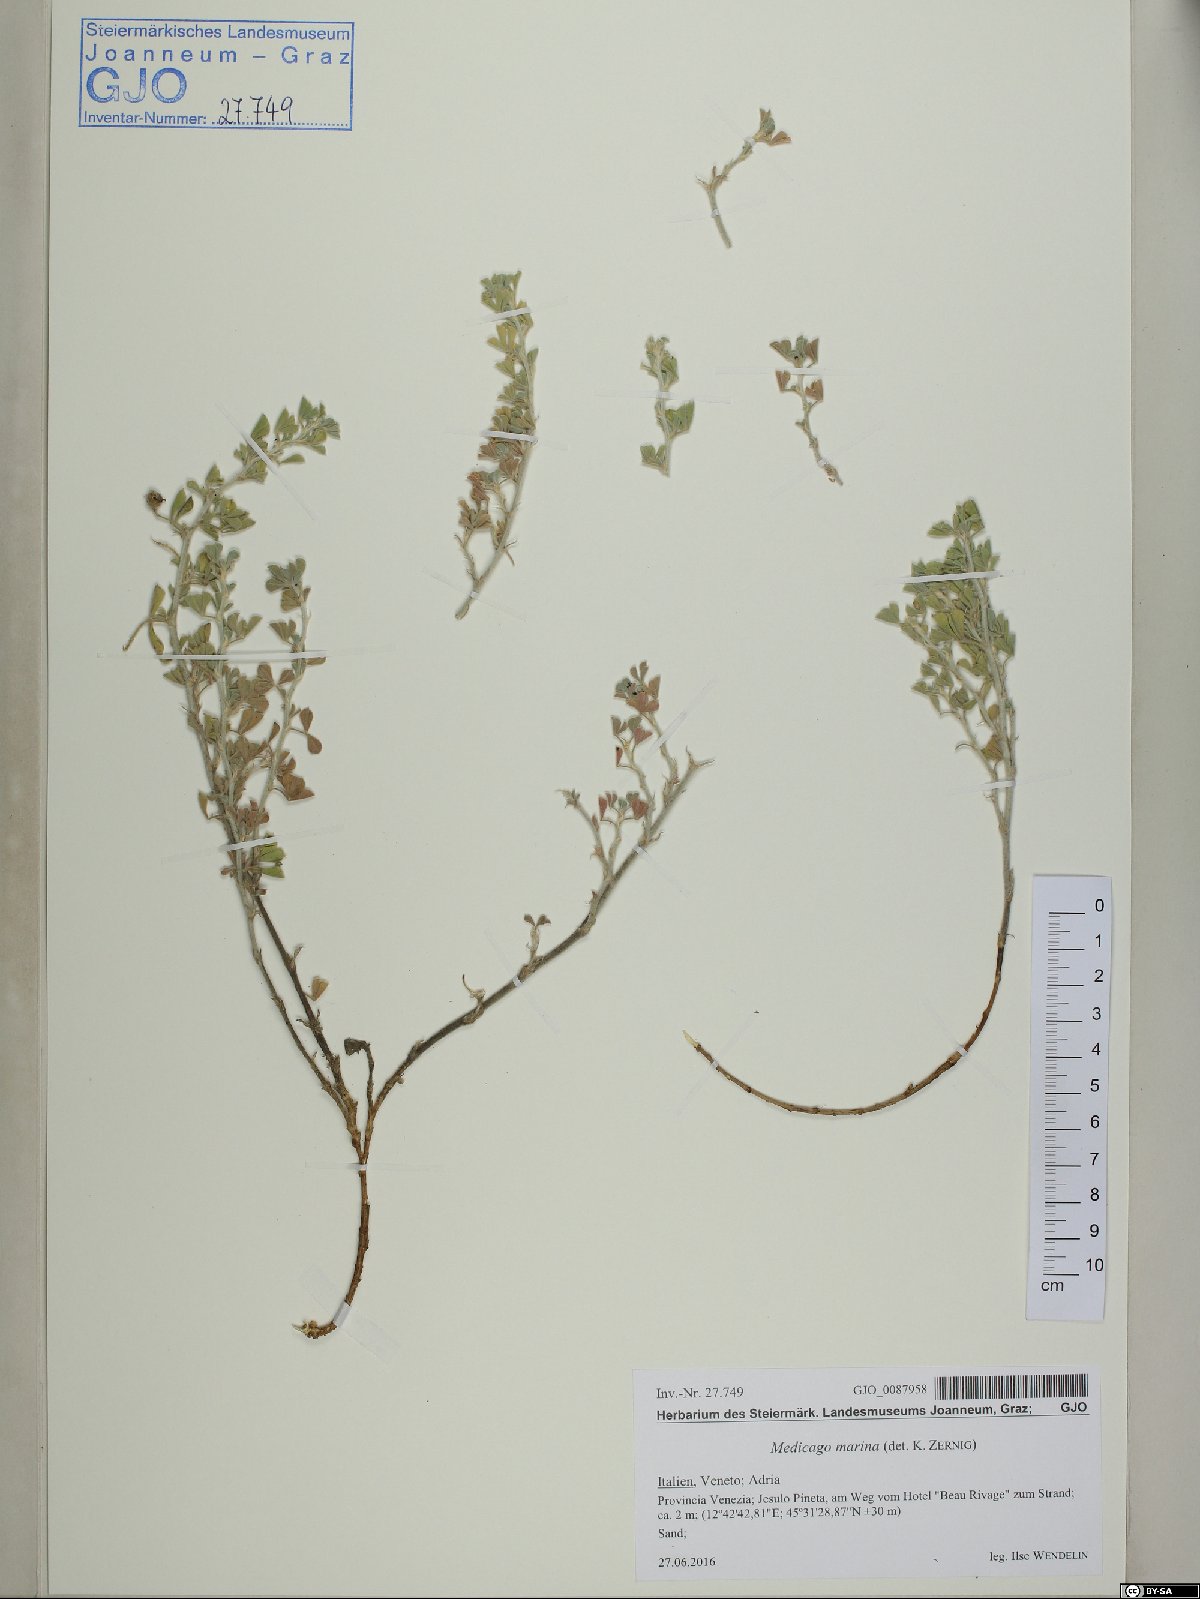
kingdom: Plantae
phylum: Tracheophyta
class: Magnoliopsida
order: Fabales
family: Fabaceae
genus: Medicago
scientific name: Medicago marina
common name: Sea medick
